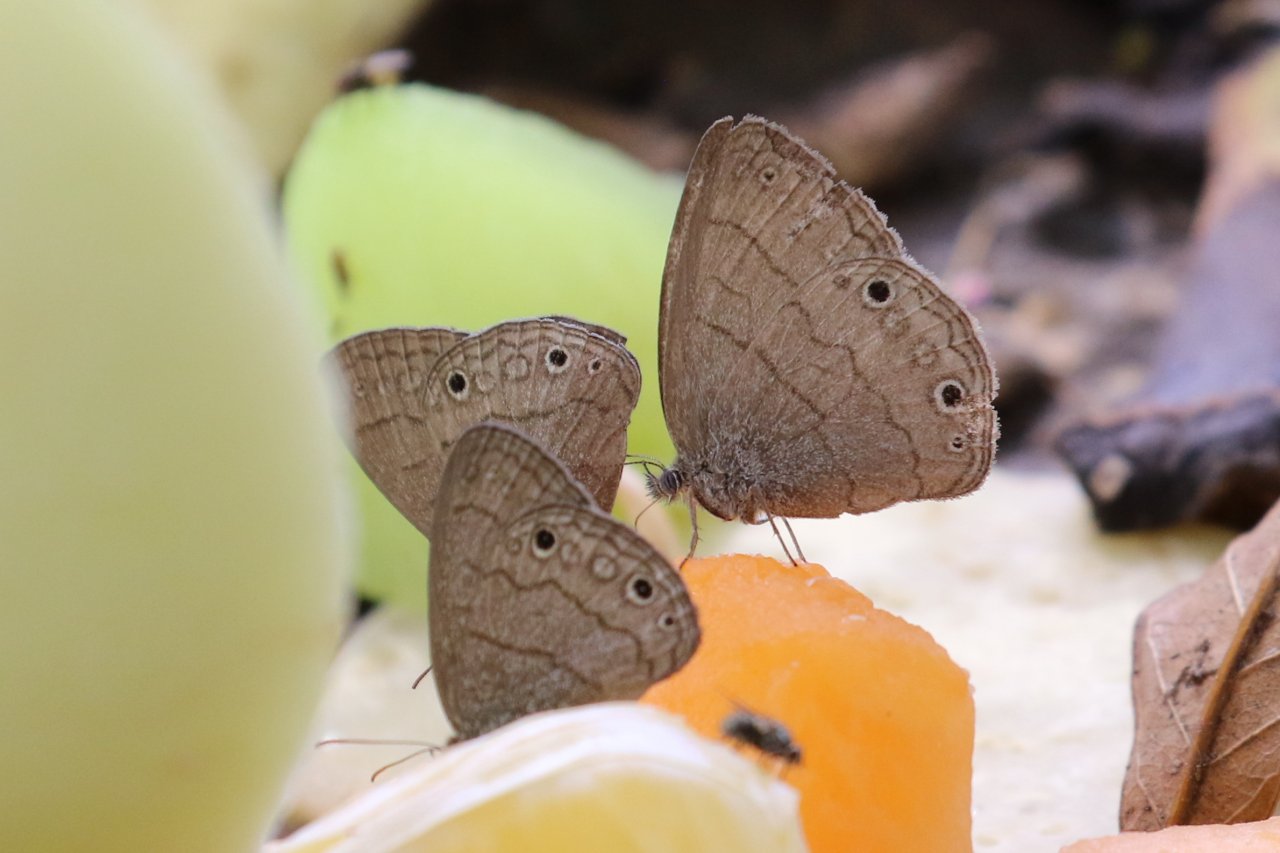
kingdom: Animalia
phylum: Arthropoda
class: Insecta
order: Lepidoptera
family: Nymphalidae
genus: Hermeuptychia
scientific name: Hermeuptychia hermybius
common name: South Texas Satyr
